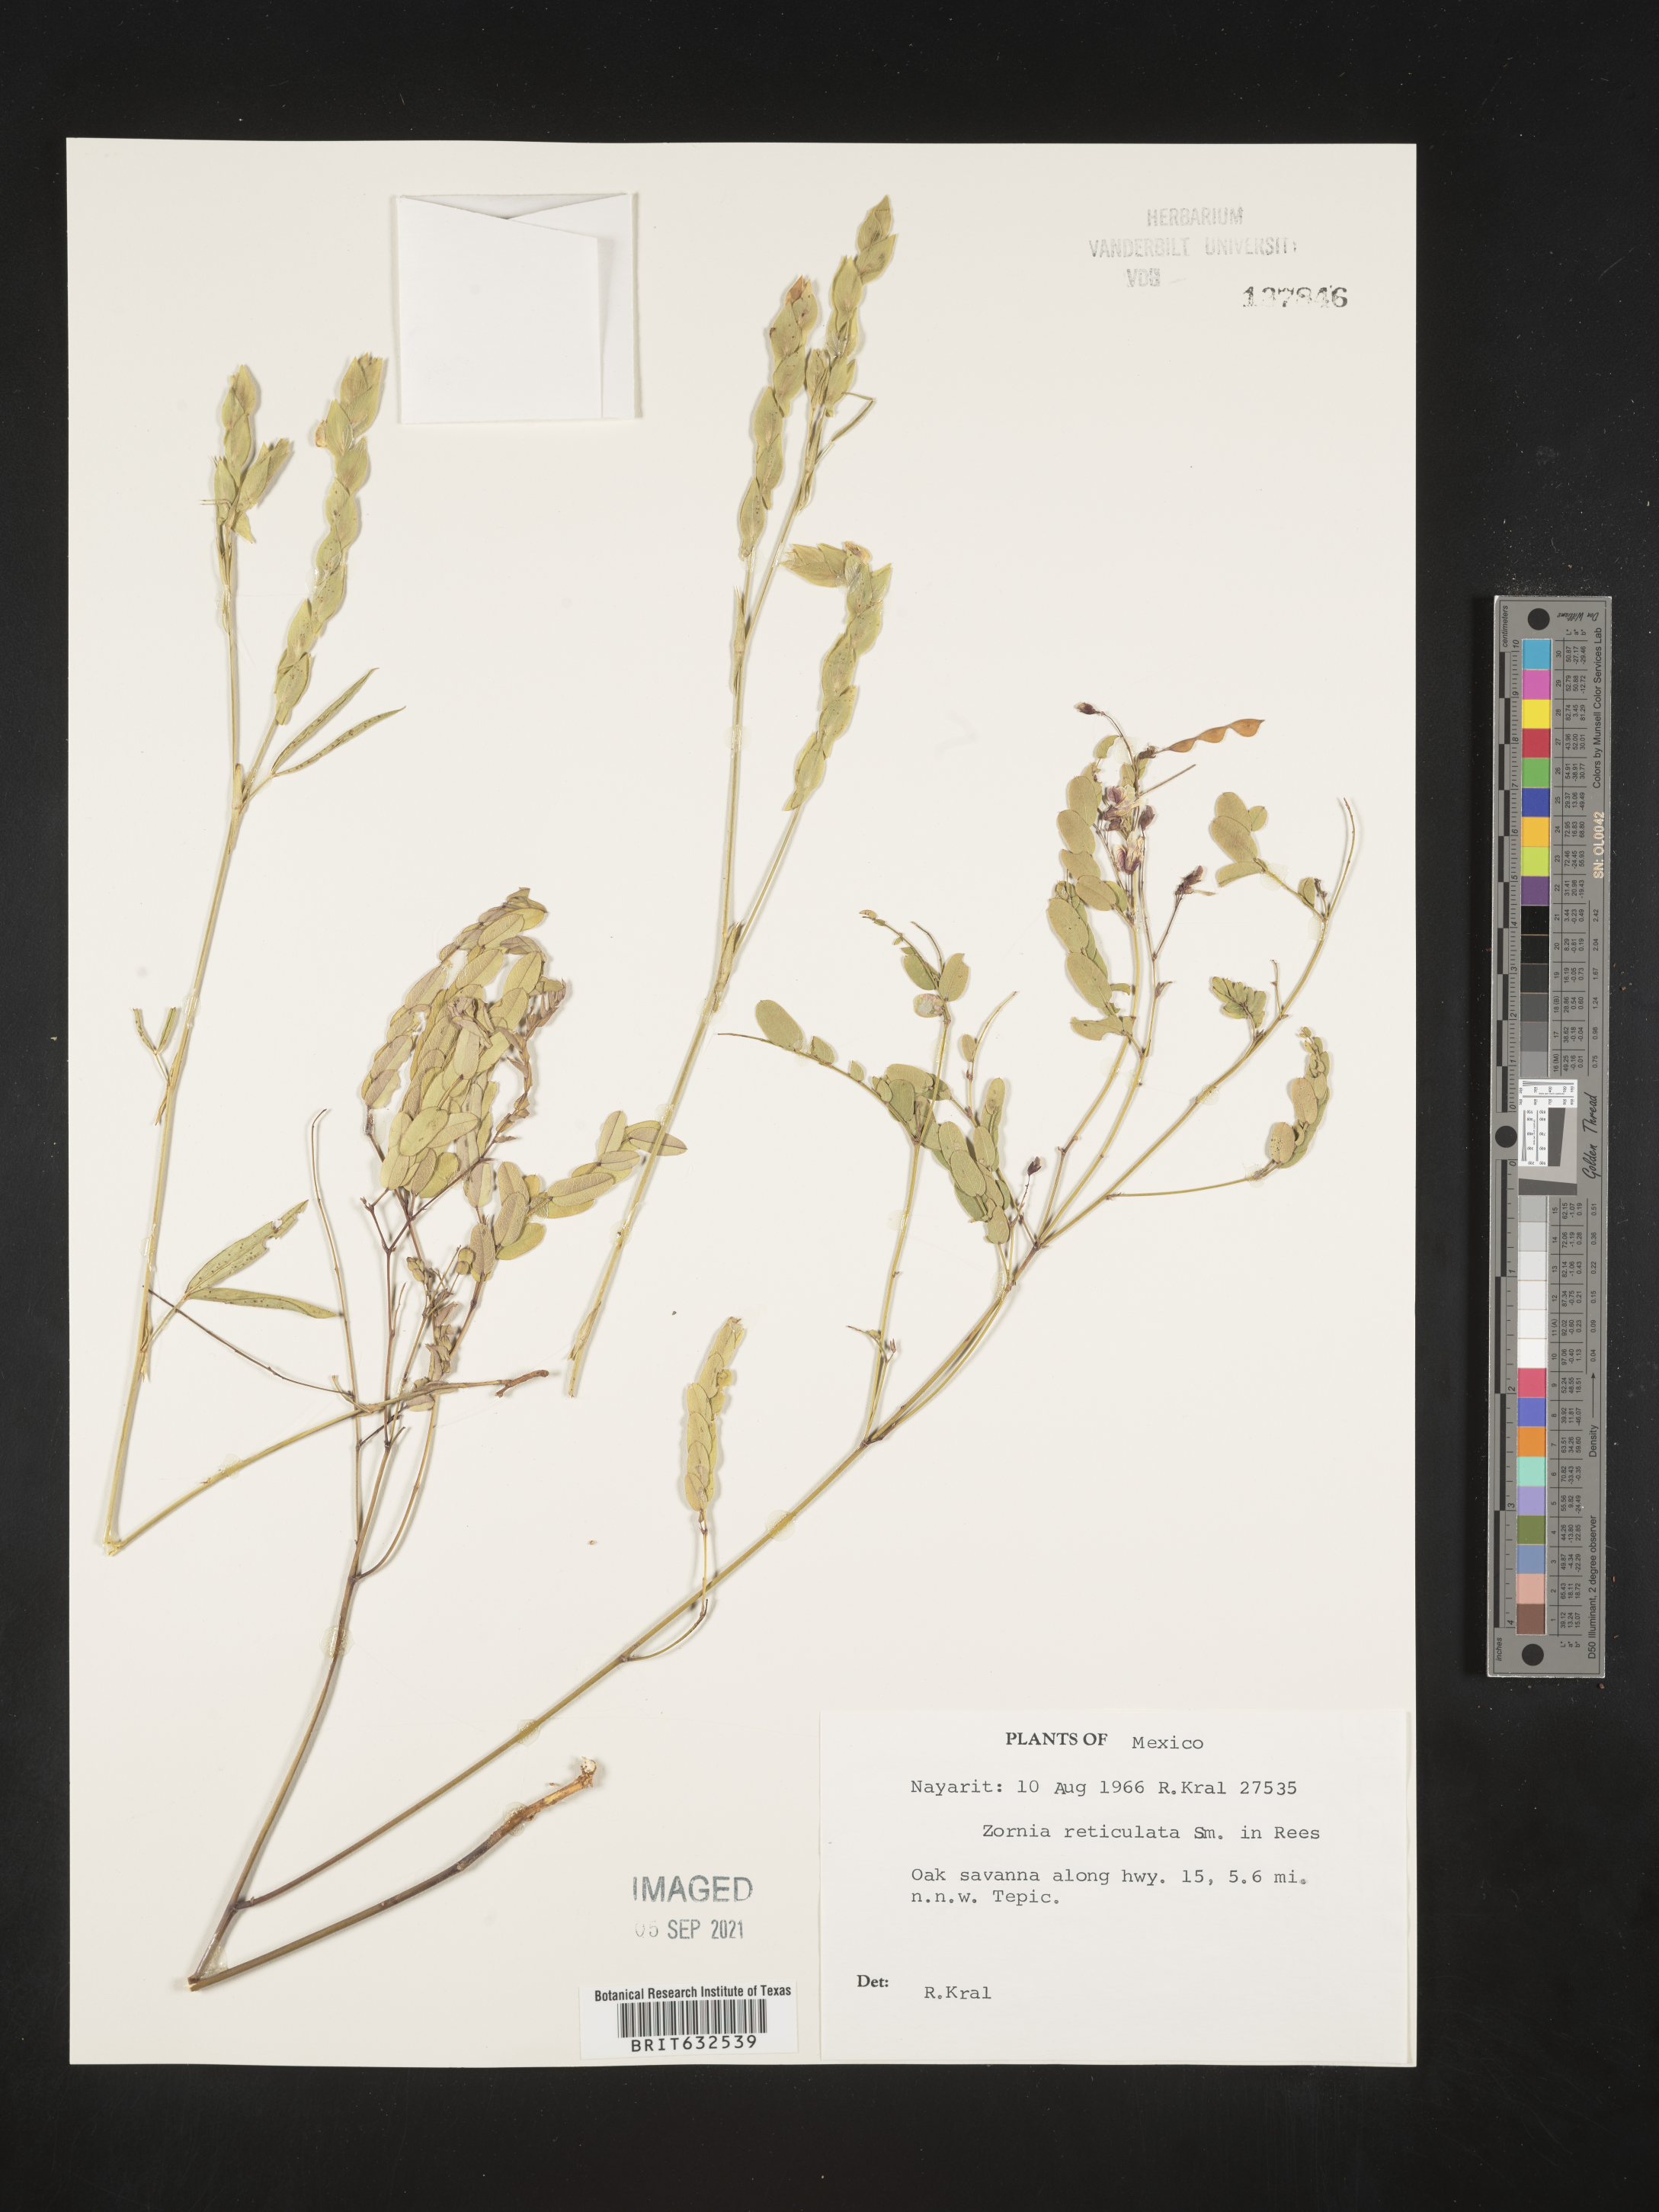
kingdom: Plantae
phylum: Tracheophyta
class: Magnoliopsida
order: Fabales
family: Fabaceae
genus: Zornia
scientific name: Zornia
